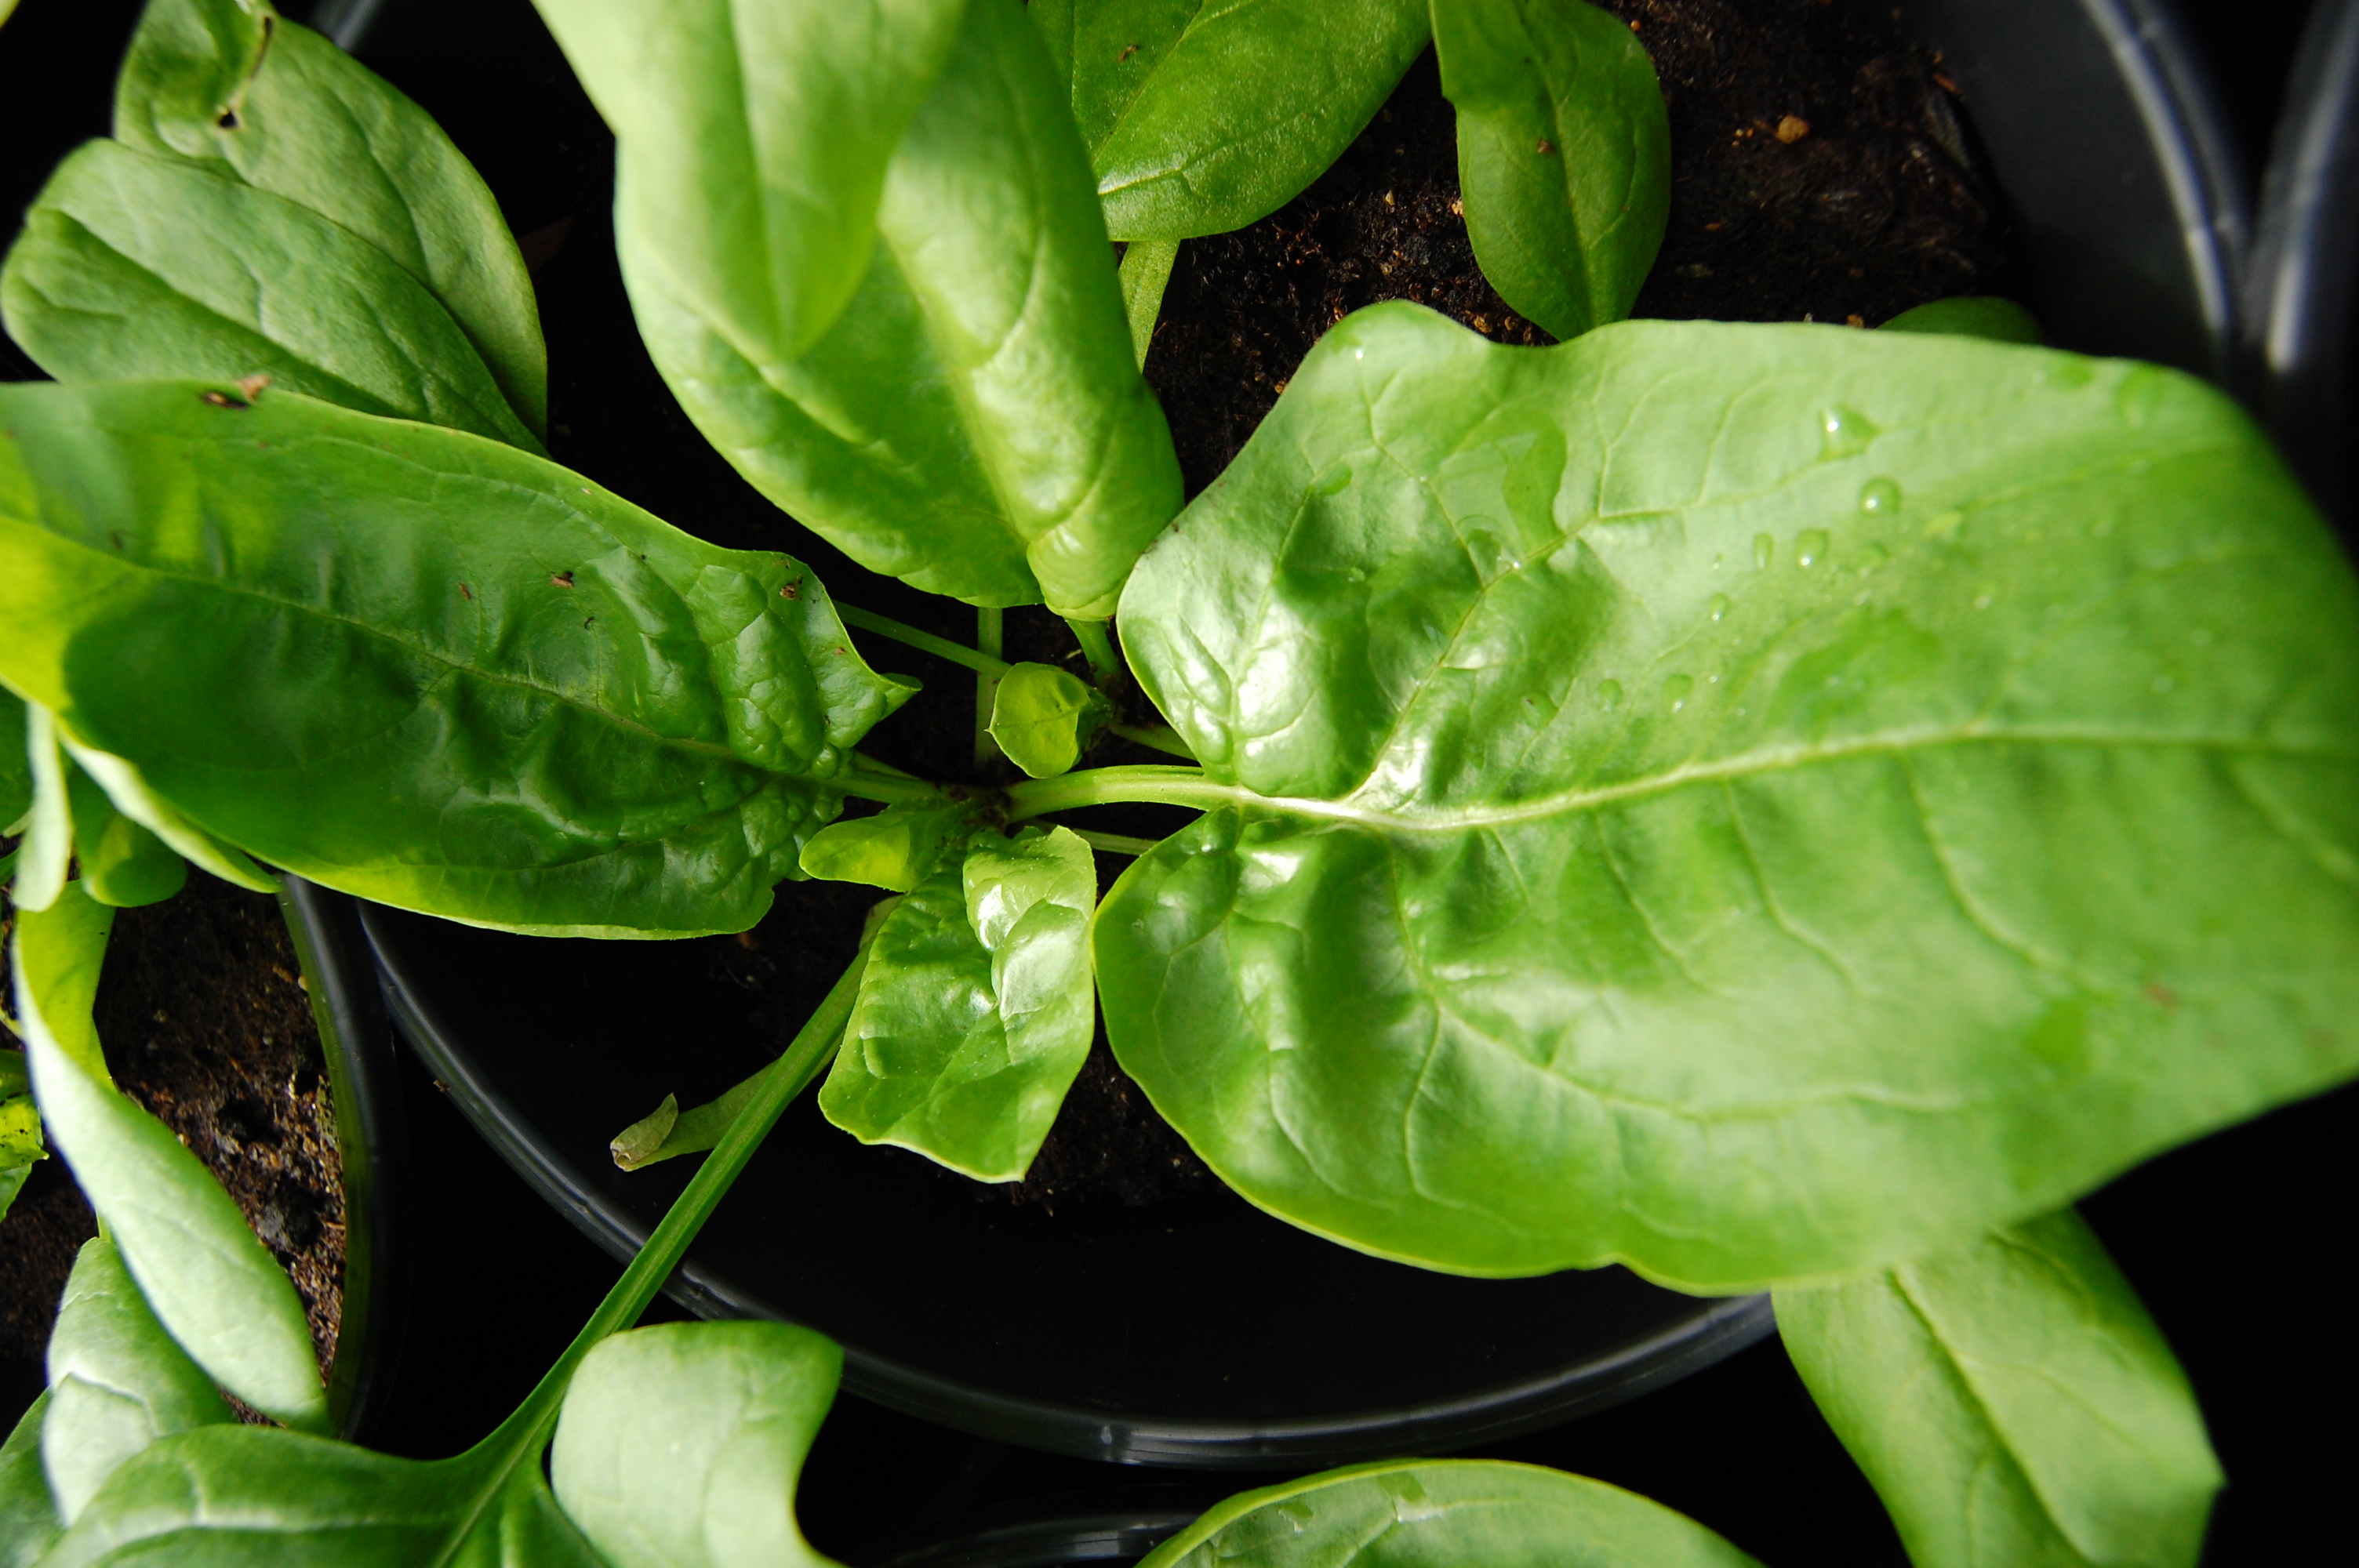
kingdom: Plantae
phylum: Tracheophyta
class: Magnoliopsida
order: Caryophyllales
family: Amaranthaceae
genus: Spinacia
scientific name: Spinacia oleracea
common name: Spinach
